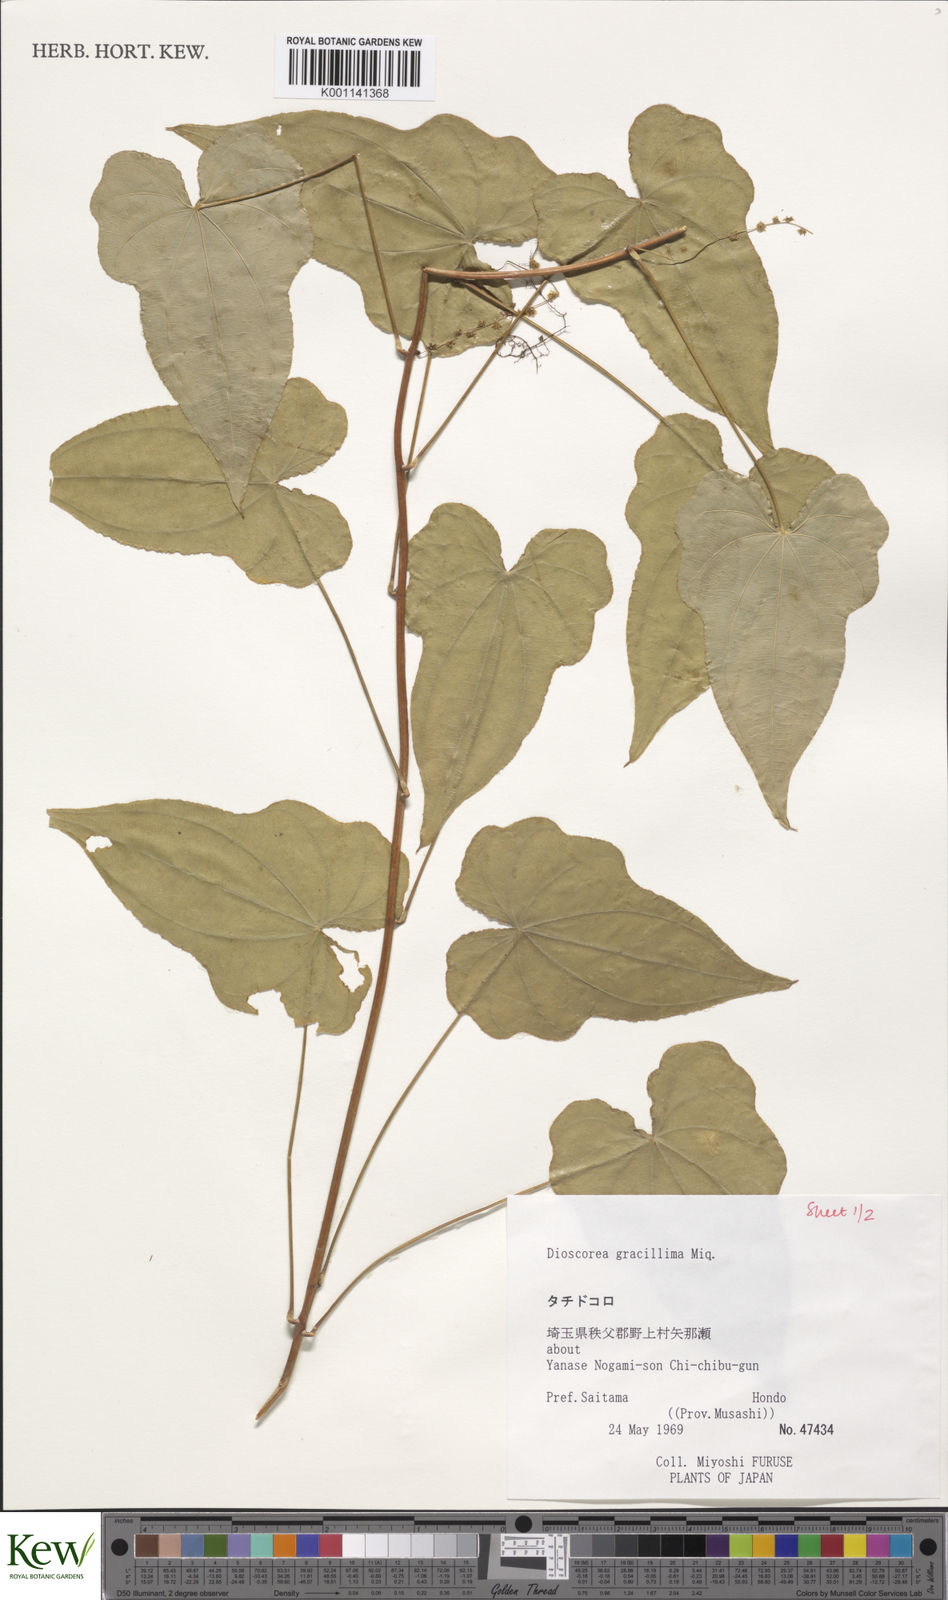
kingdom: Plantae
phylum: Tracheophyta
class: Liliopsida
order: Dioscoreales
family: Dioscoreaceae
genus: Dioscorea
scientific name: Dioscorea gracillima
